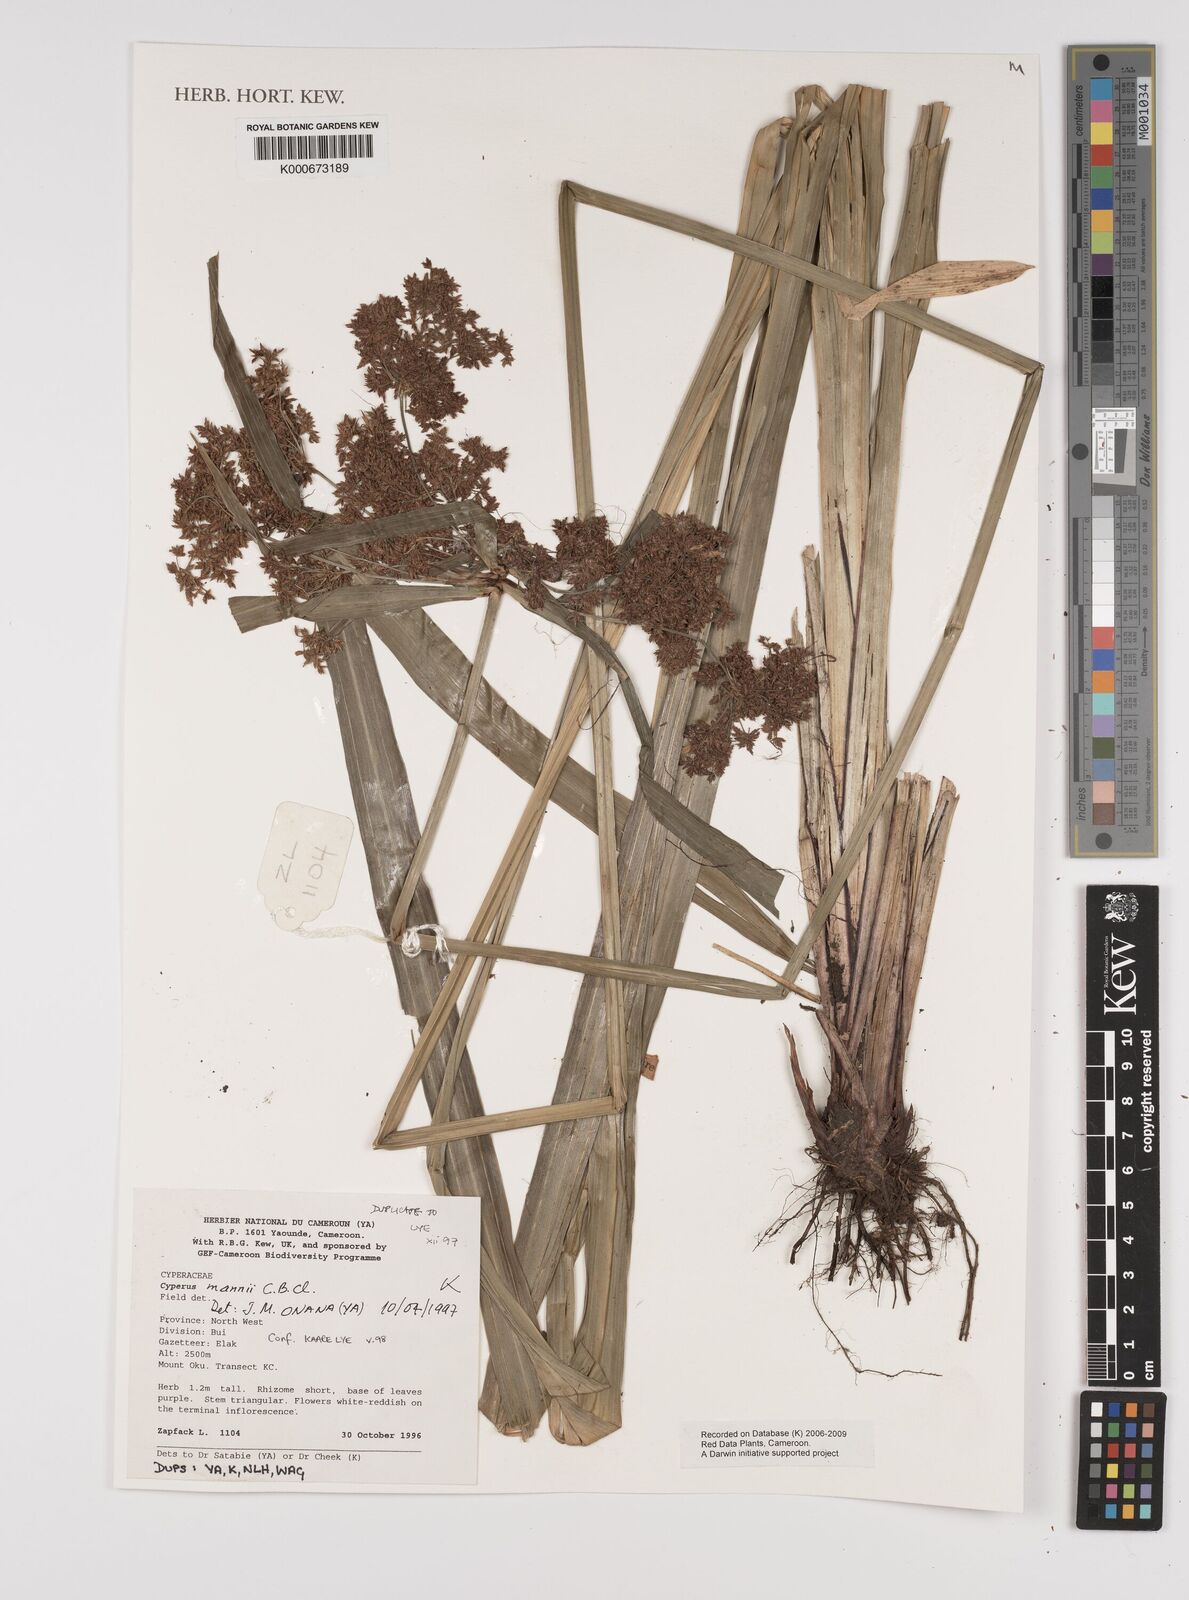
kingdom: Plantae
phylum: Tracheophyta
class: Liliopsida
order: Poales
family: Cyperaceae
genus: Cyperus
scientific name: Cyperus baronii
